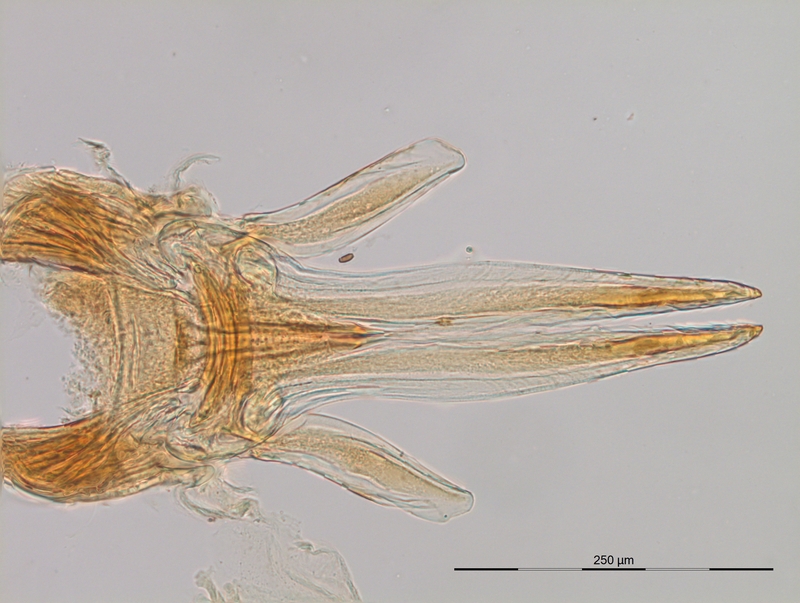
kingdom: Animalia
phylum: Arthropoda
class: Diplopoda
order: Julida
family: Blaniulidae
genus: Nopoiulus
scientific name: Nopoiulus kochii
